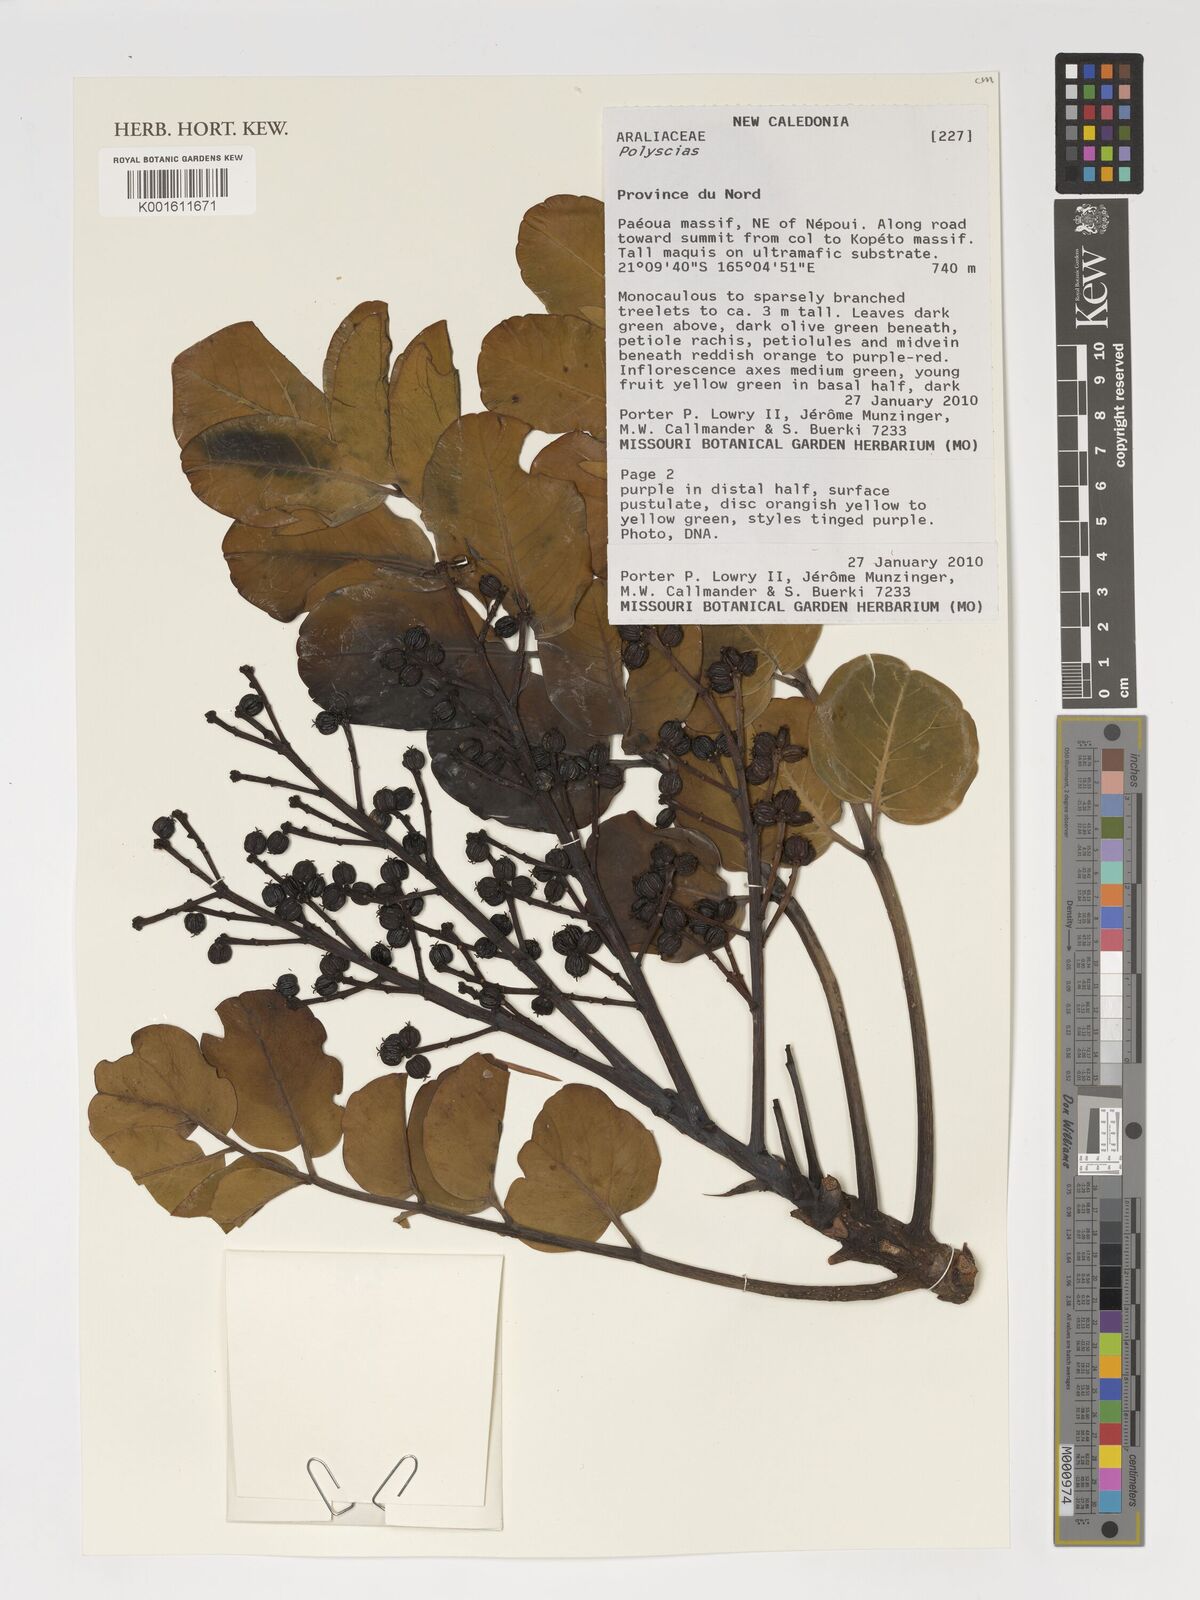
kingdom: Plantae
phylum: Tracheophyta
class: Magnoliopsida
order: Apiales
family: Araliaceae
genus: Polyscias
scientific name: Polyscias
